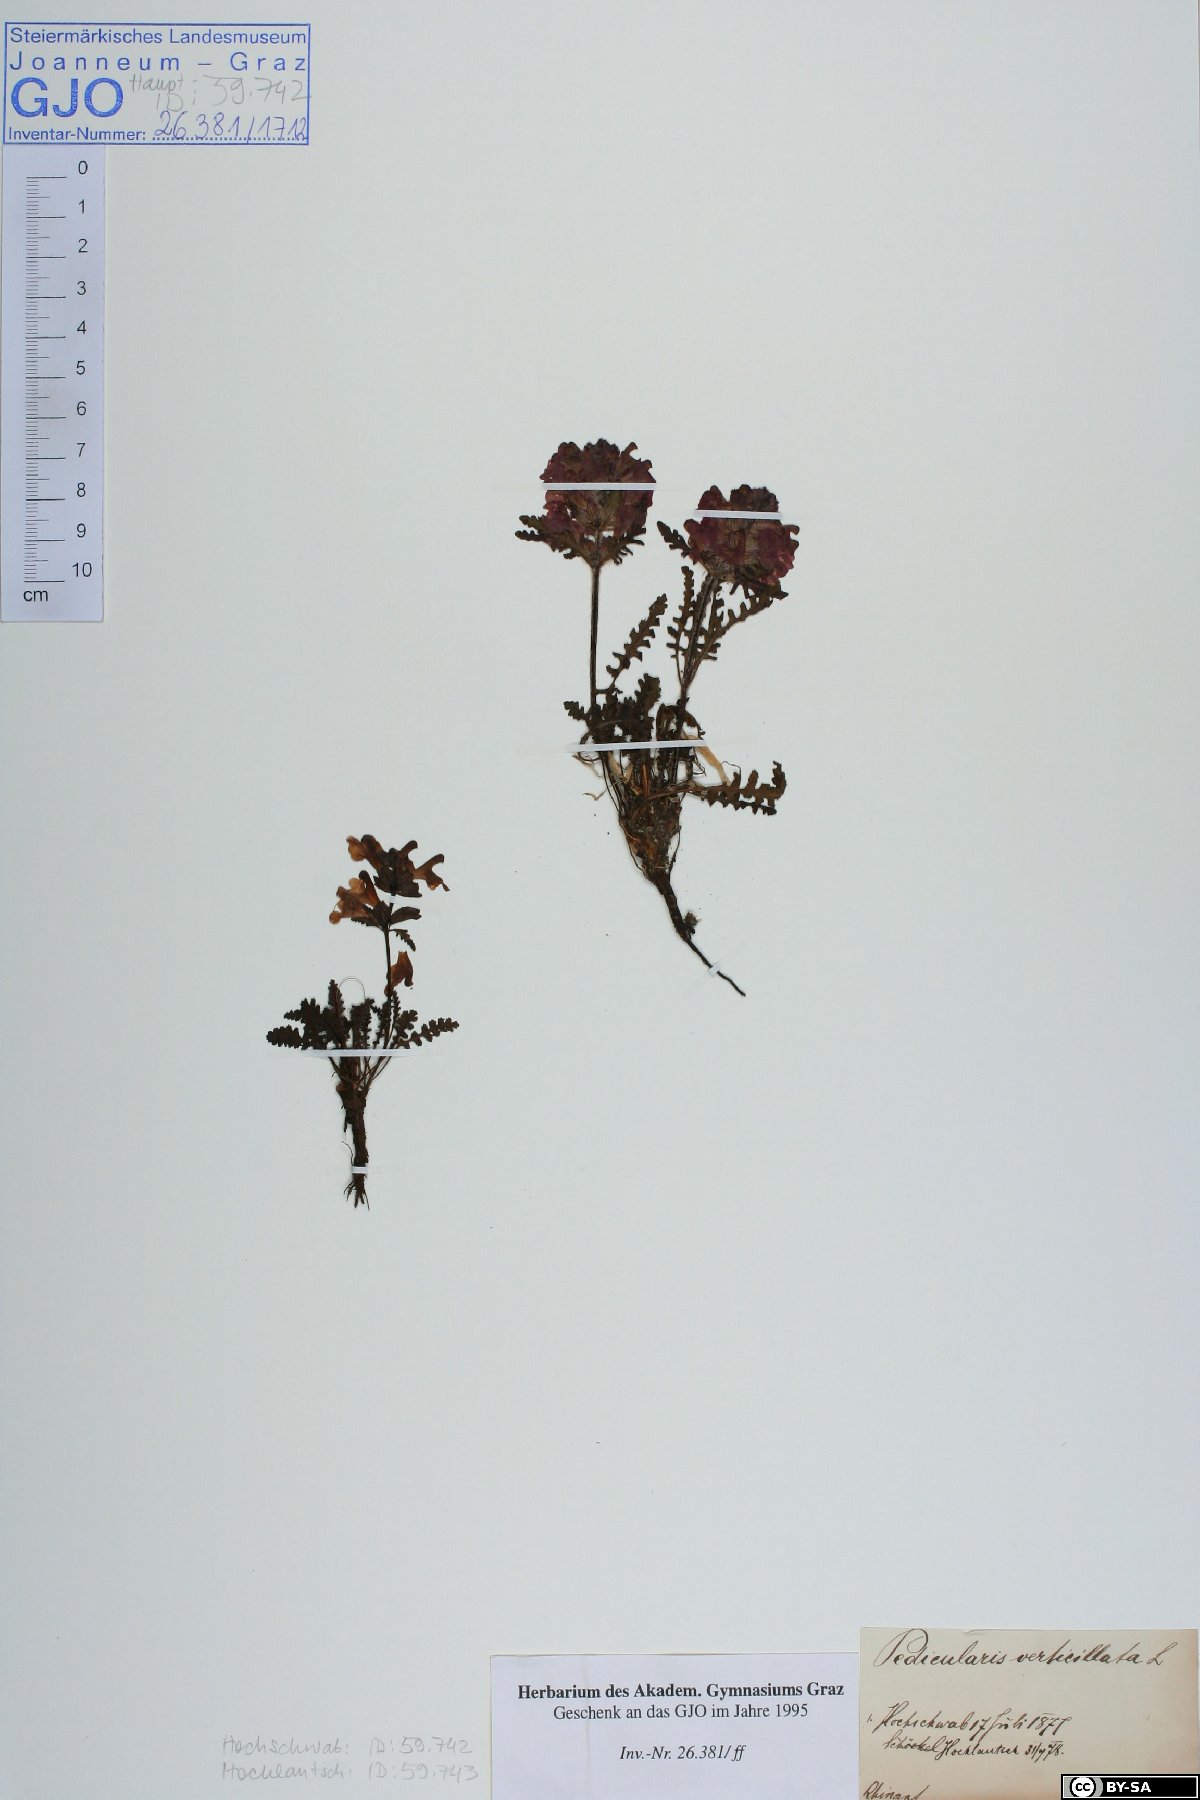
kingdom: Plantae
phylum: Tracheophyta
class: Magnoliopsida
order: Lamiales
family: Orobanchaceae
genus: Pedicularis
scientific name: Pedicularis verticillata
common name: Whorled lousewort
